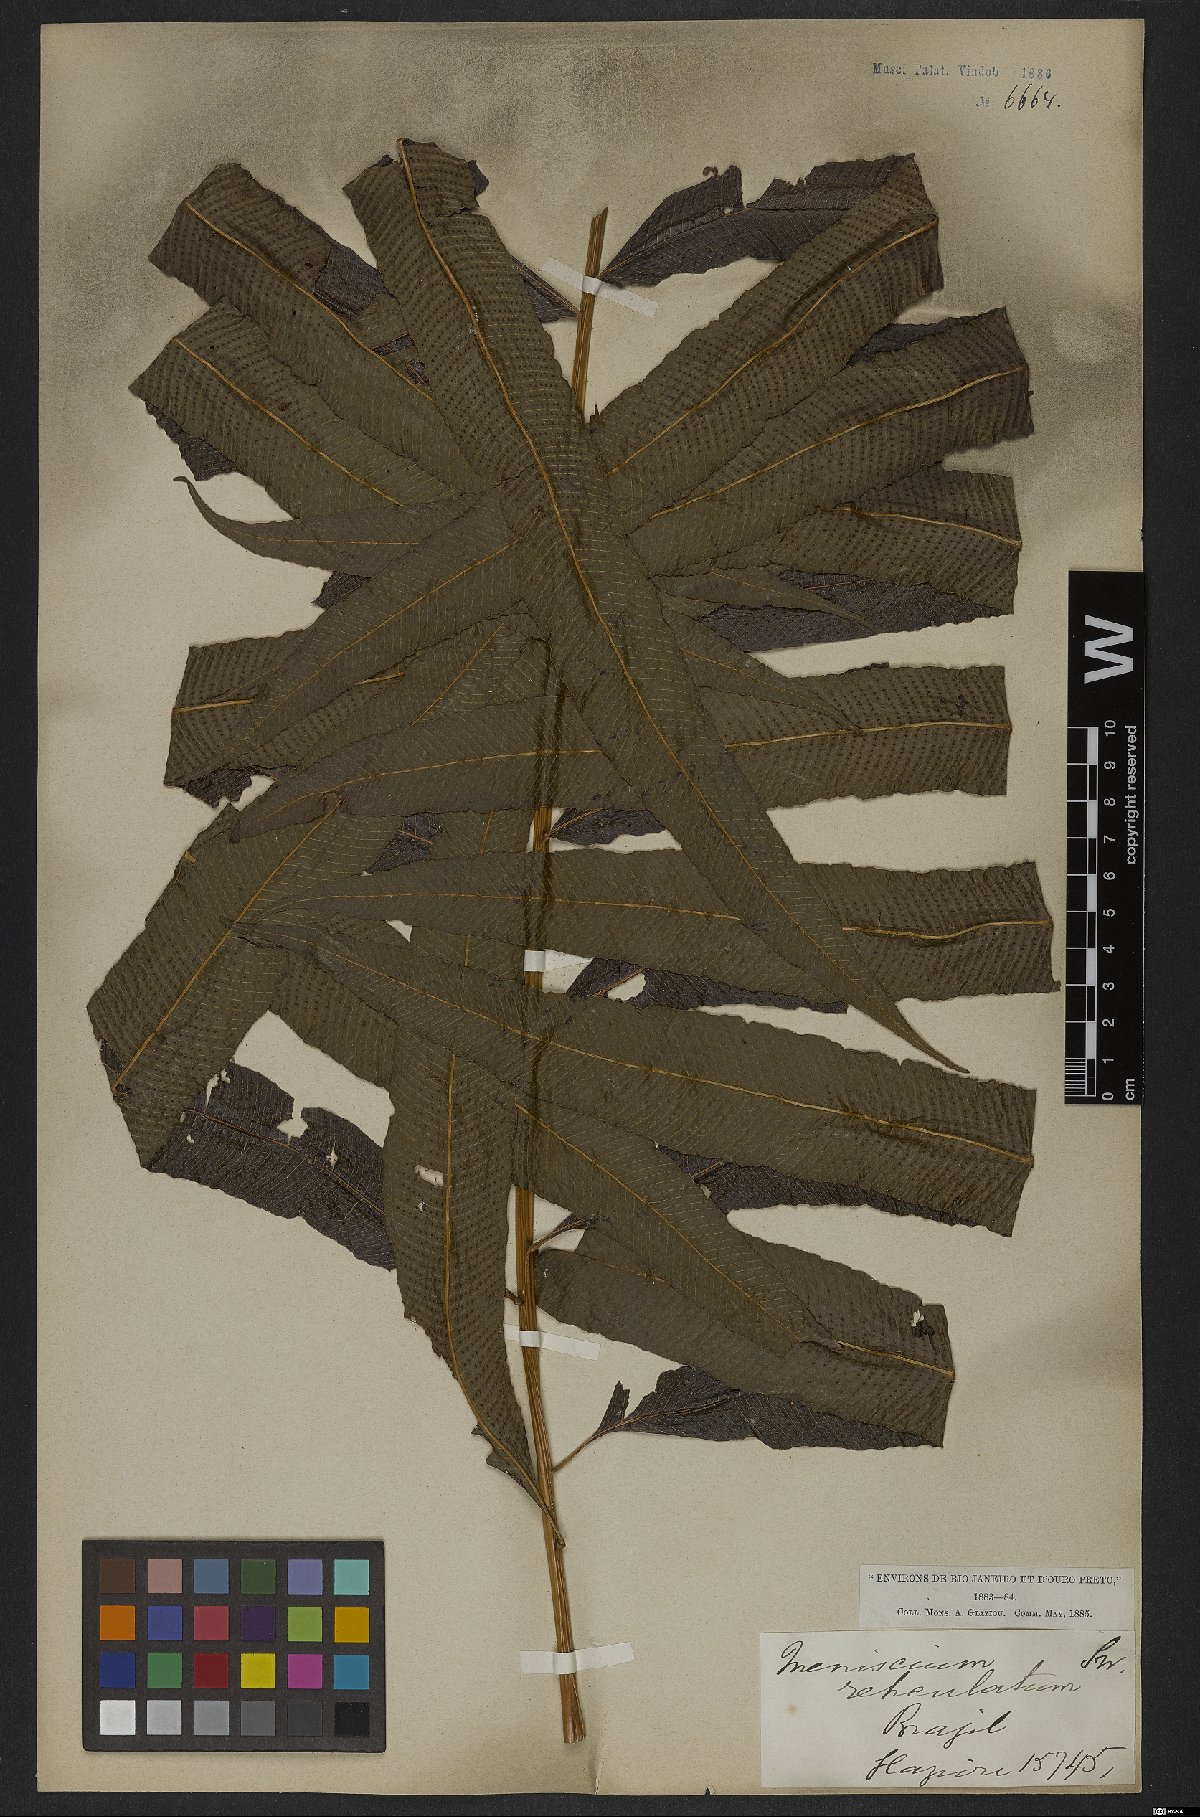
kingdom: Plantae
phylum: Tracheophyta
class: Polypodiopsida
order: Polypodiales
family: Thelypteridaceae
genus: Meniscium
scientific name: Meniscium reticulatum
